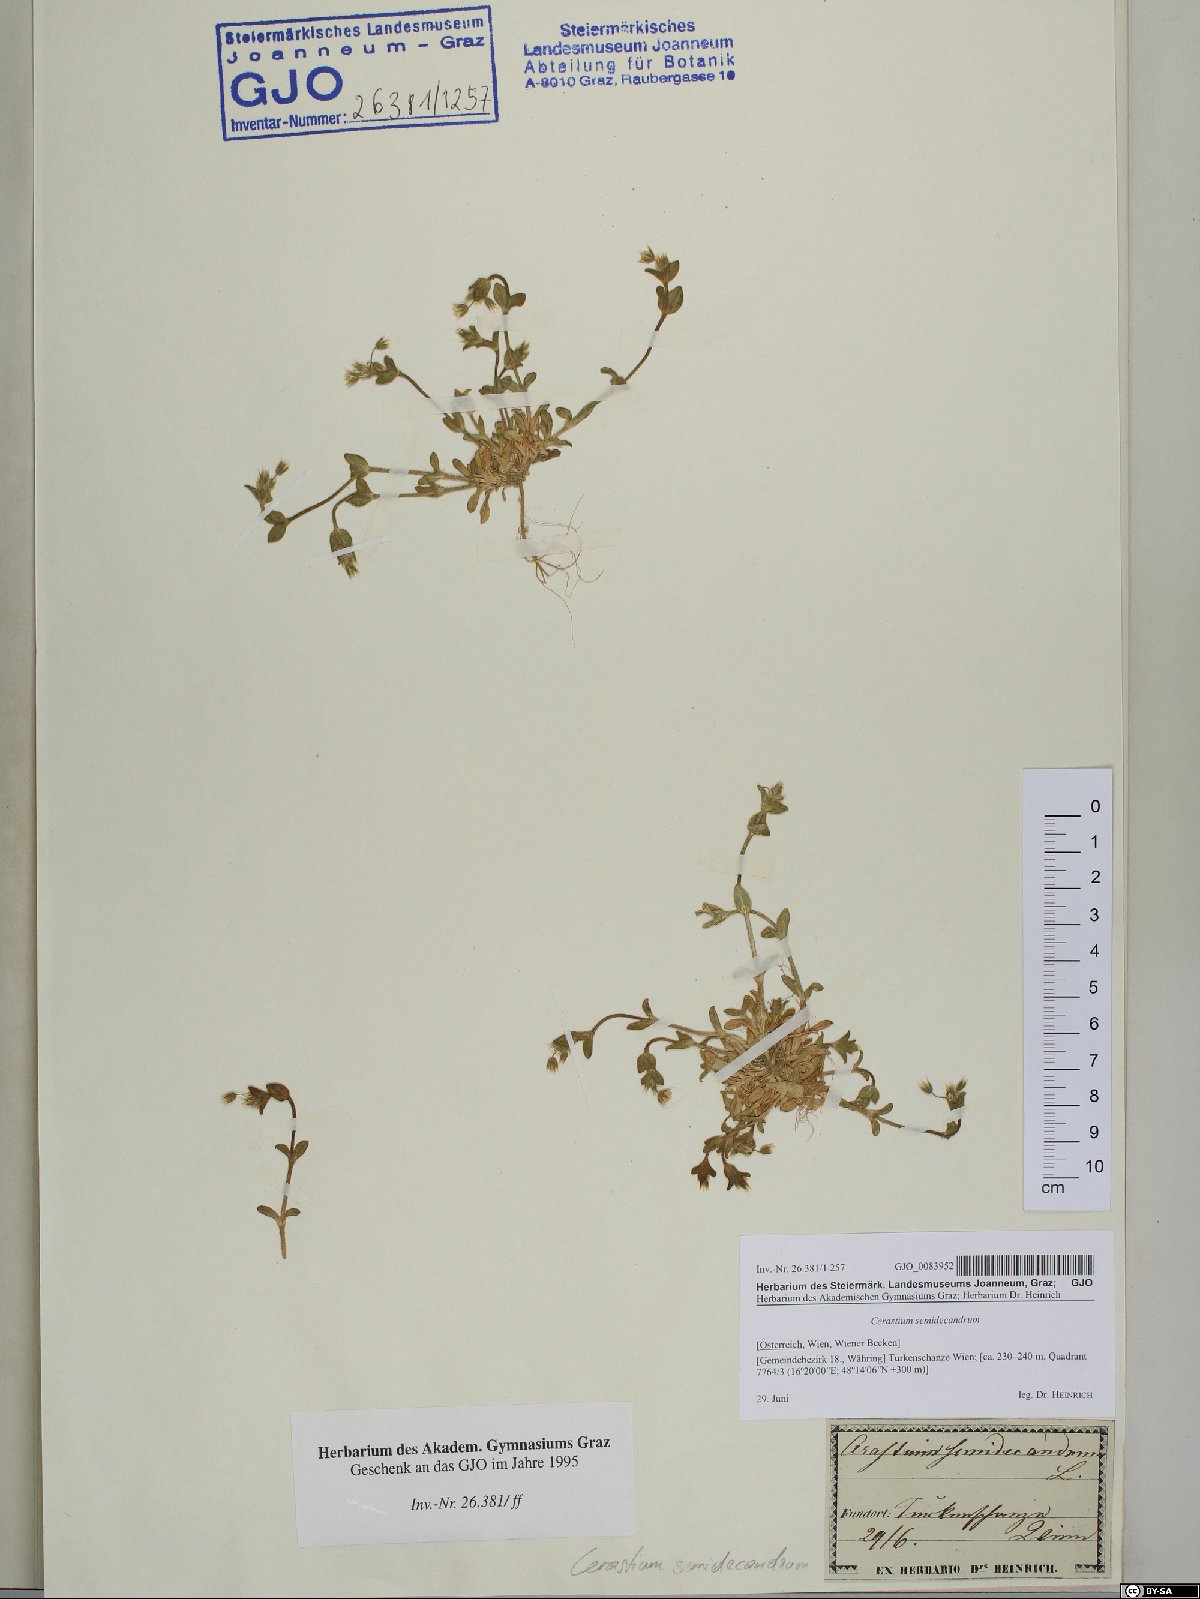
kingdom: Plantae
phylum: Tracheophyta
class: Magnoliopsida
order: Caryophyllales
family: Caryophyllaceae
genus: Cerastium
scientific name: Cerastium semidecandrum
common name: Little mouse-ear
